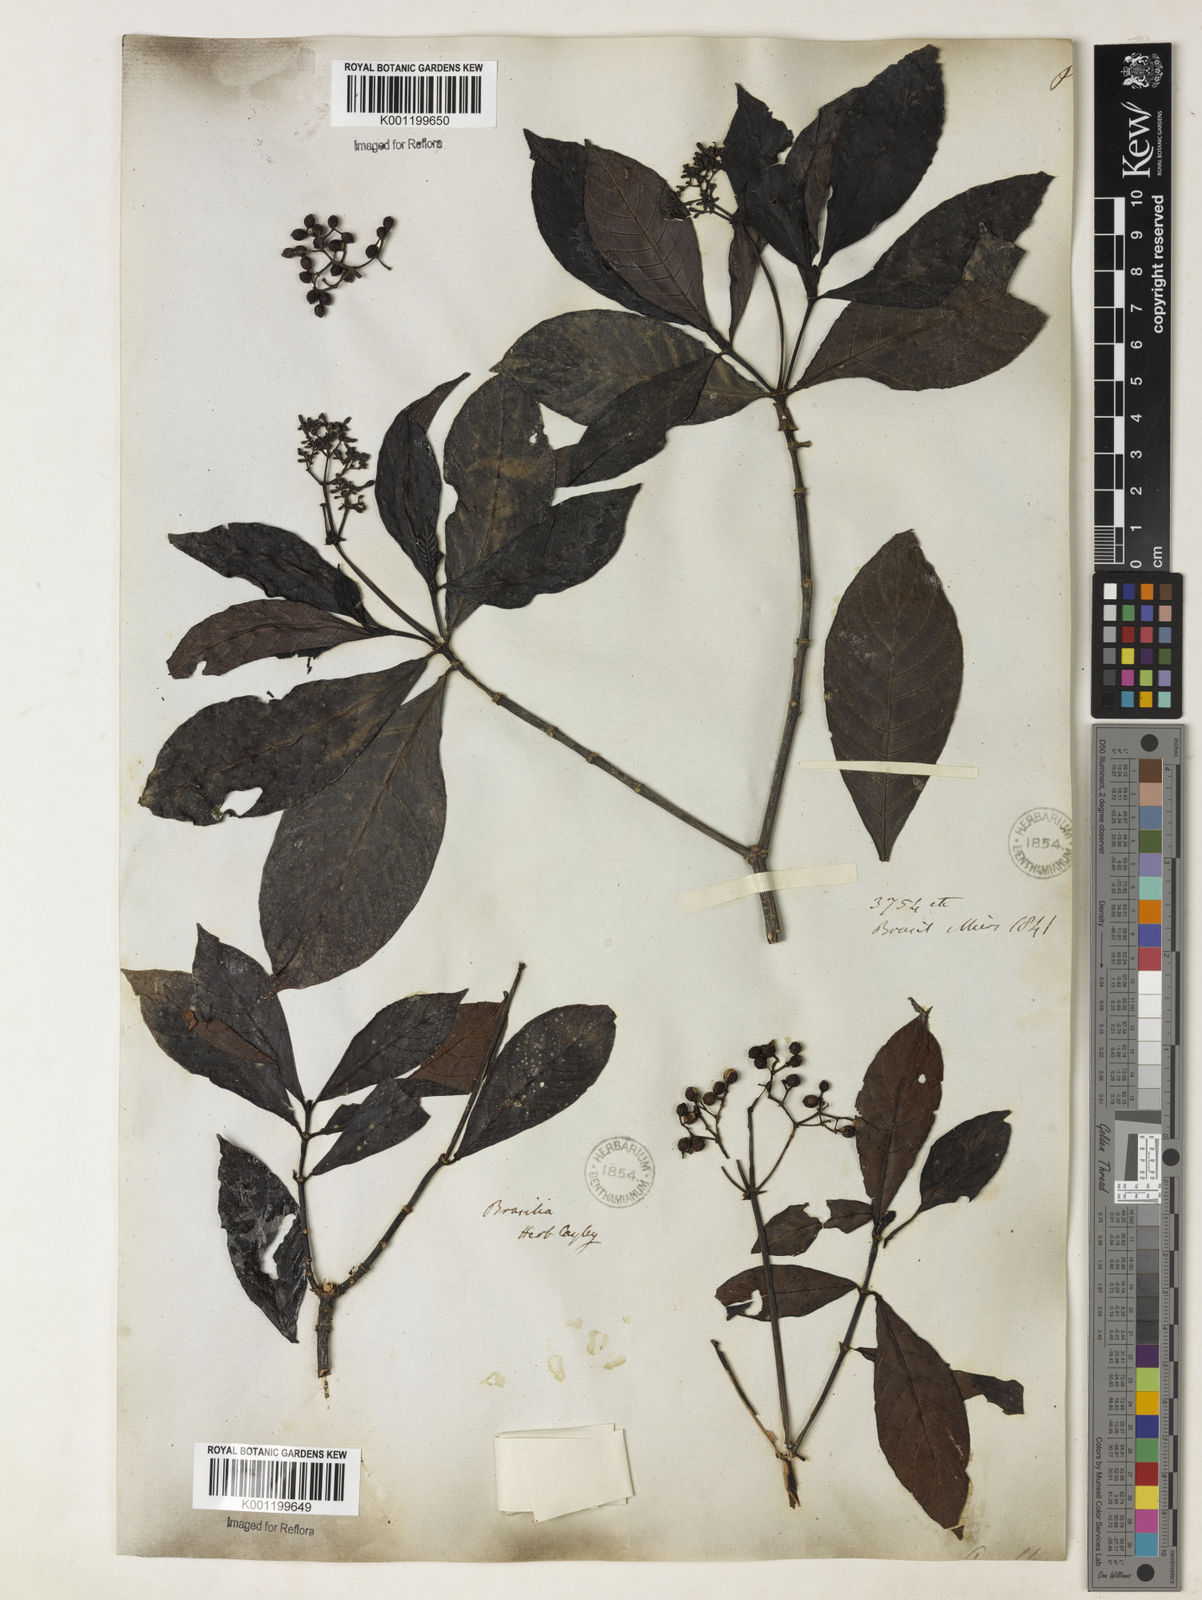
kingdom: Plantae
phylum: Tracheophyta
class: Magnoliopsida
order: Gentianales
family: Rubiaceae
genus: Psychotria
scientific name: Psychotria carthagenensis
